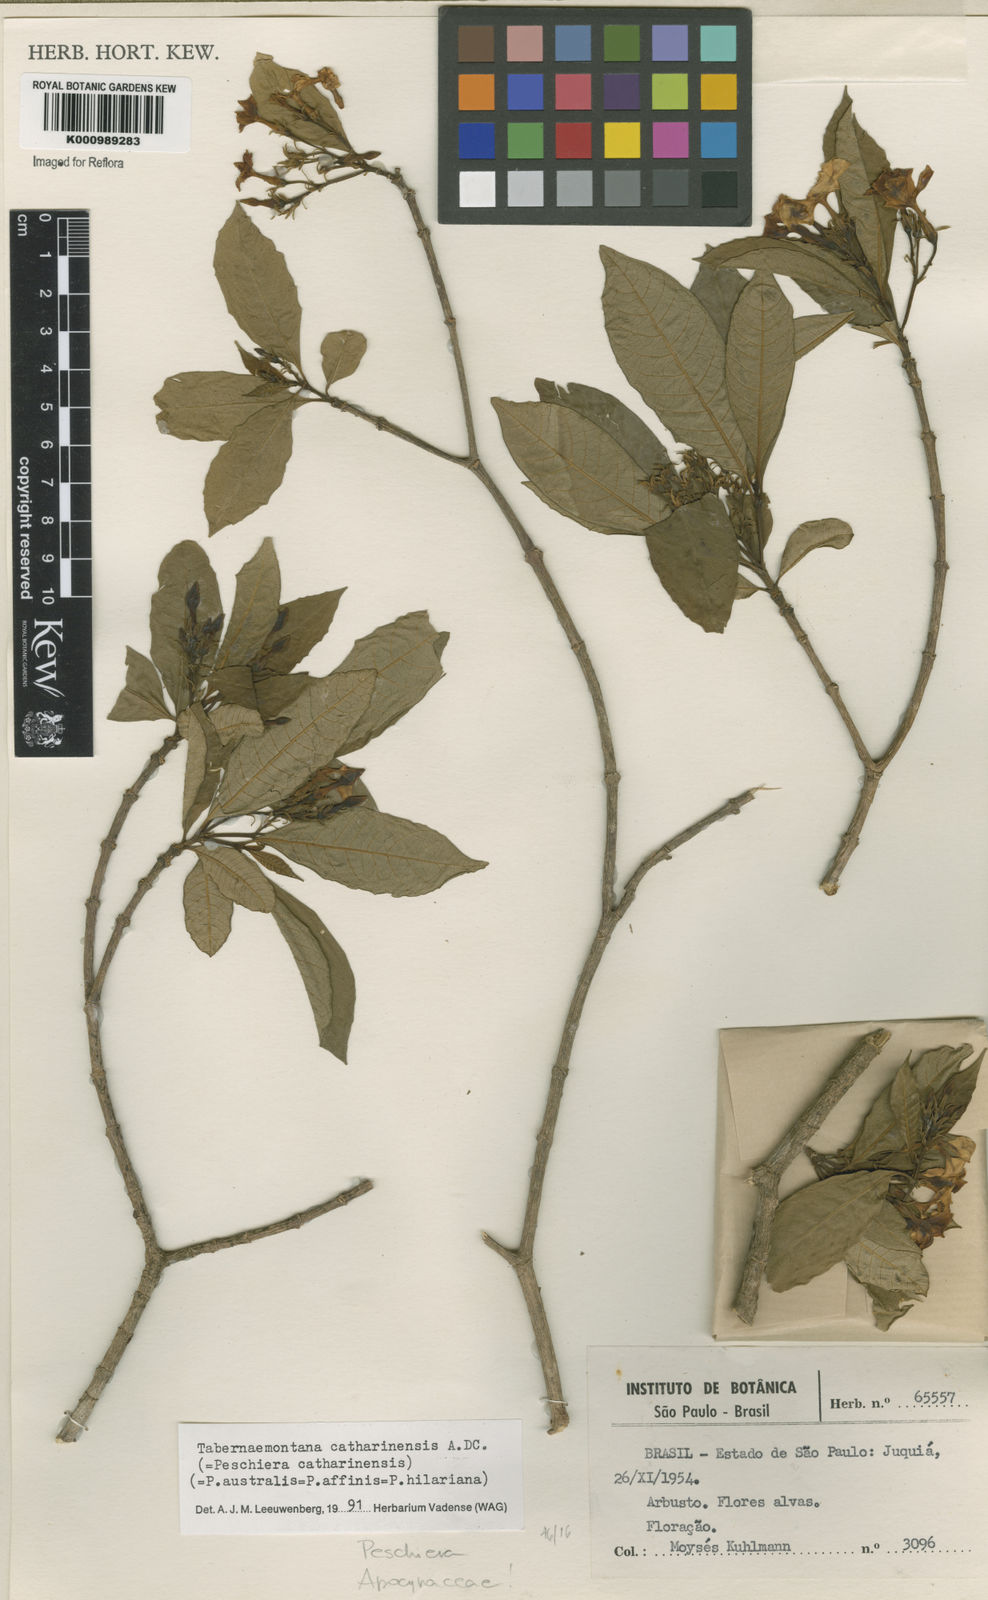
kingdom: Plantae
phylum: Tracheophyta
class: Magnoliopsida
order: Gentianales
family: Apocynaceae
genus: Tabernaemontana
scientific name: Tabernaemontana catharinensis
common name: Pinwheel-flower
